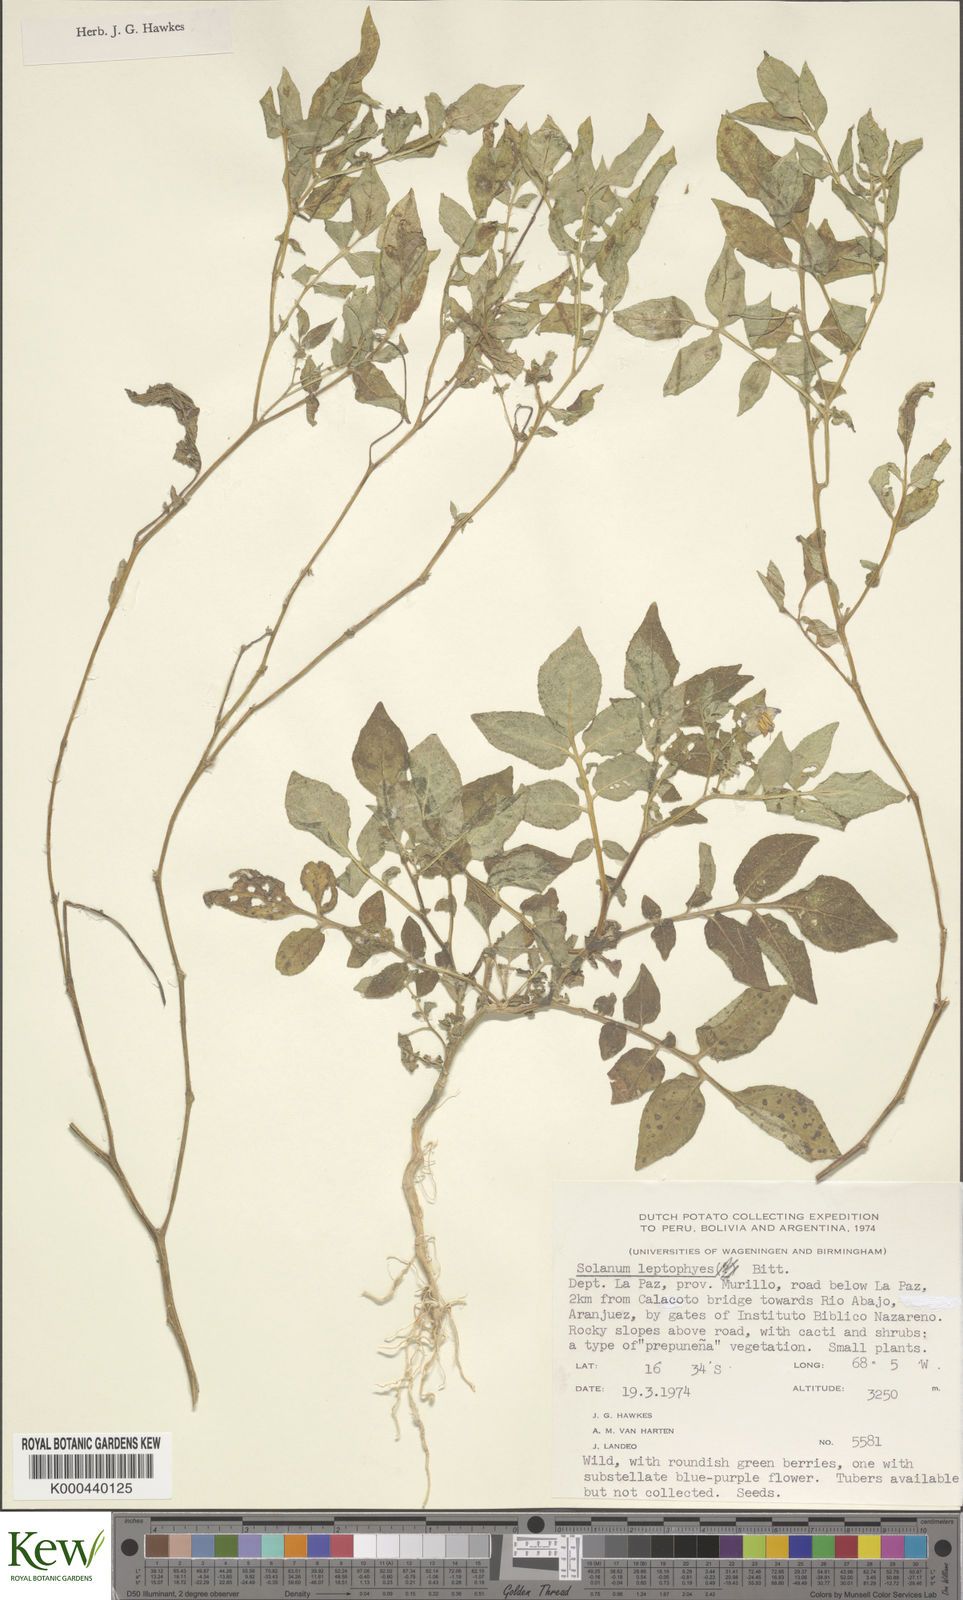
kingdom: Plantae
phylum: Tracheophyta
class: Magnoliopsida
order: Solanales
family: Solanaceae
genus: Solanum
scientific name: Solanum brevicaule
